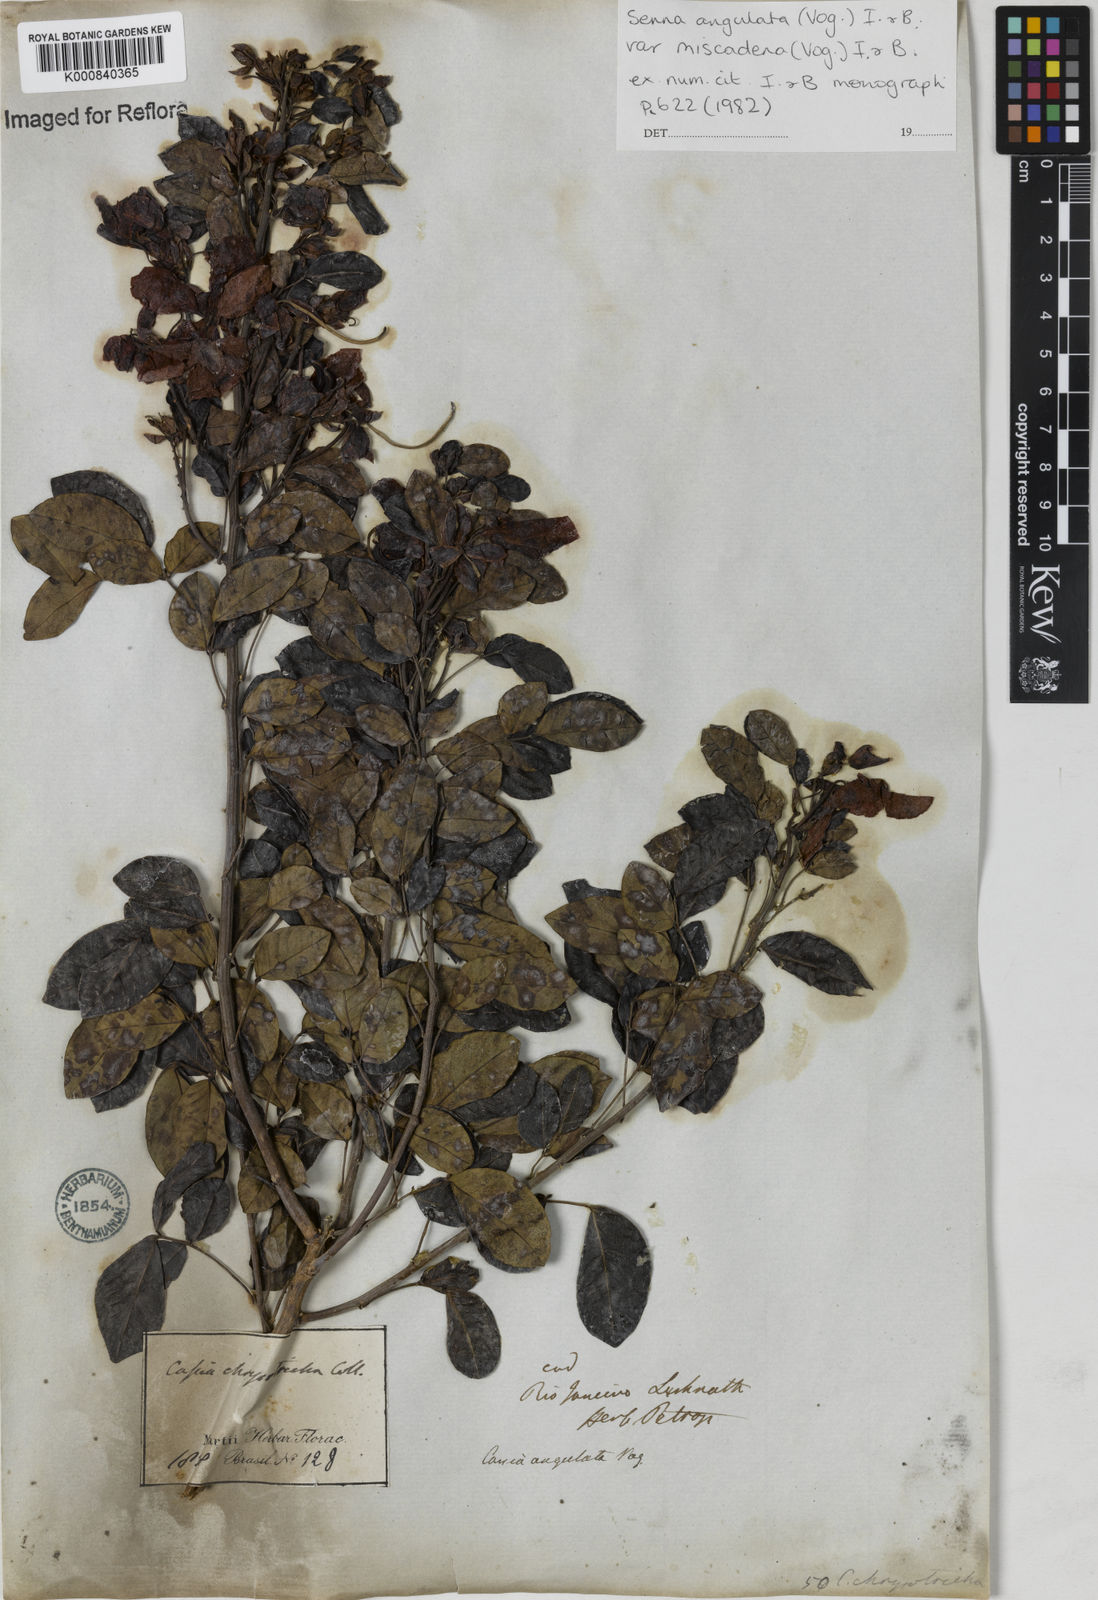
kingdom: Plantae
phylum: Tracheophyta
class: Magnoliopsida
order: Fabales
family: Fabaceae
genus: Senna
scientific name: Senna angulata
